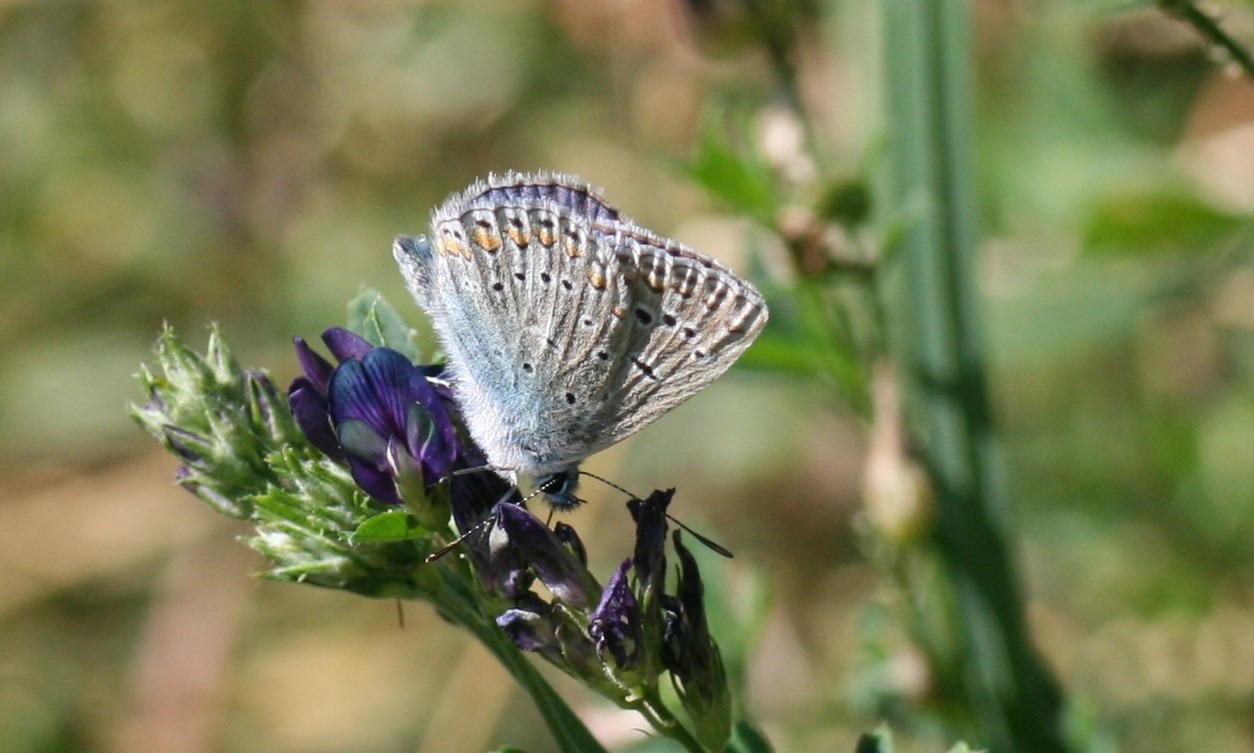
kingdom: Animalia
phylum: Arthropoda
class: Insecta
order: Lepidoptera
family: Lycaenidae
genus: Polyommatus
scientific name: Polyommatus icarus
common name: Almindelig blåfugl
